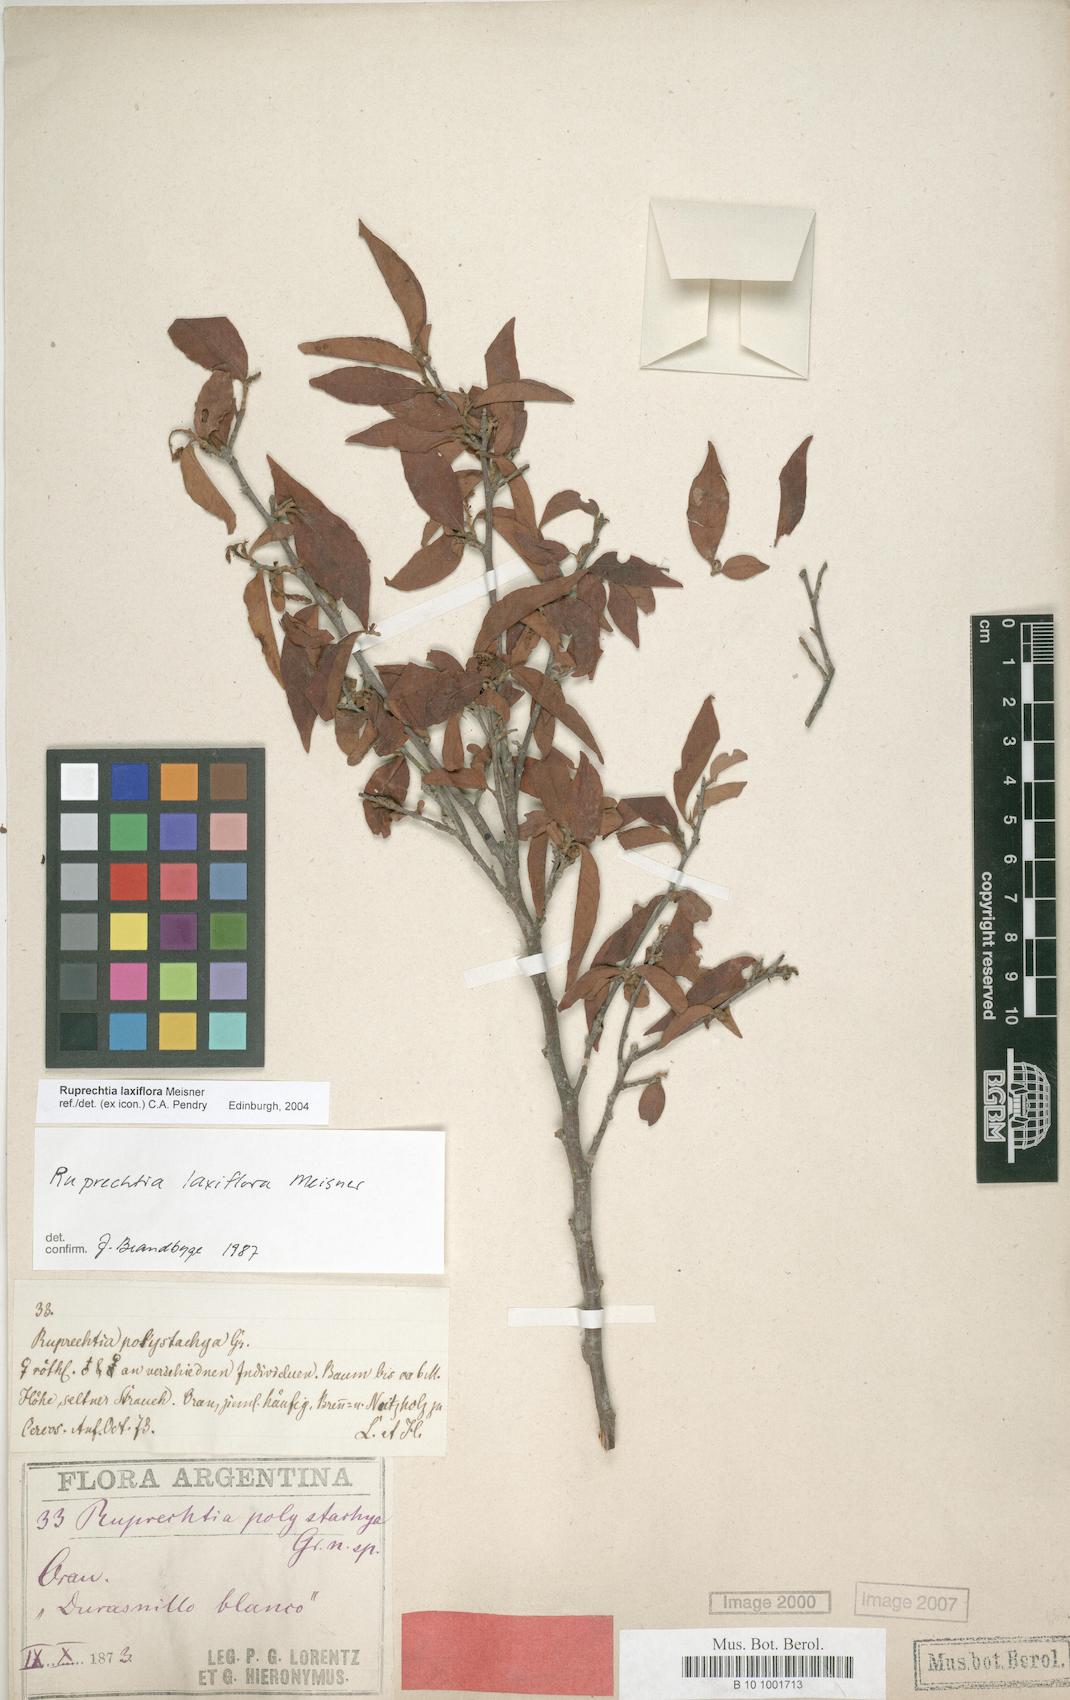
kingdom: Plantae
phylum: Tracheophyta
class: Magnoliopsida
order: Caryophyllales
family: Polygonaceae
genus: Ruprechtia
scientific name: Ruprechtia laxiflora
